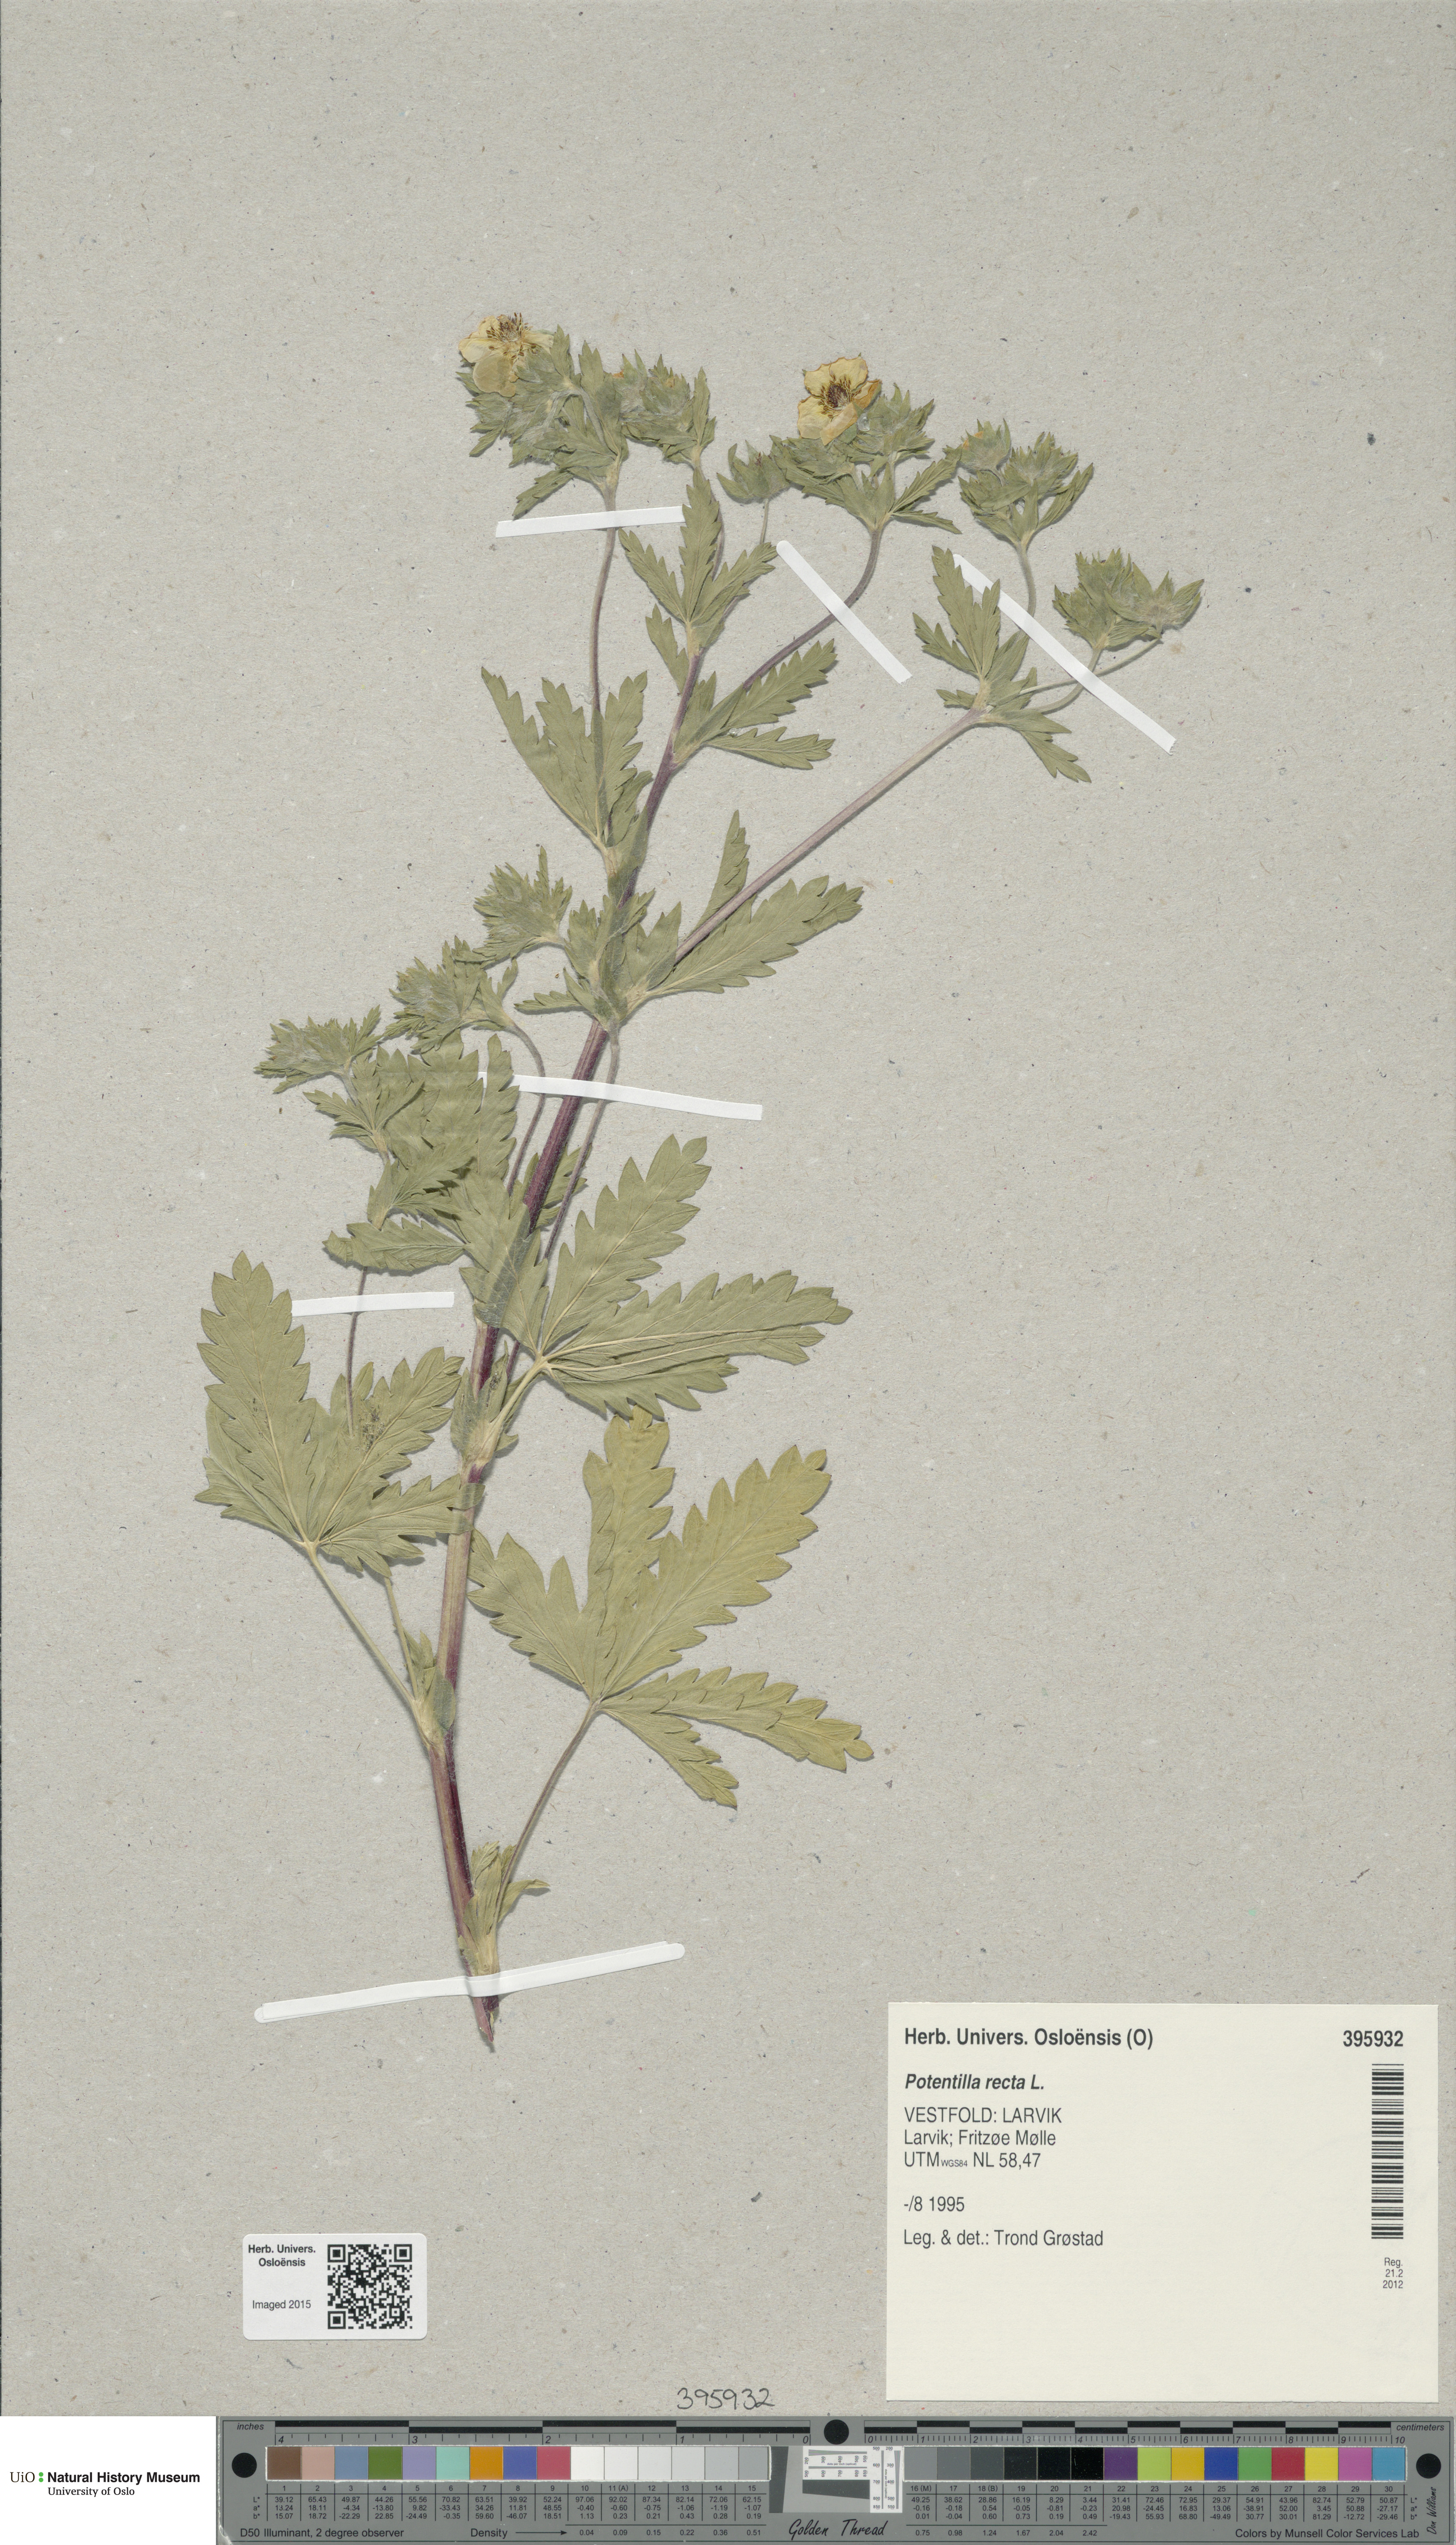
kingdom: Plantae
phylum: Tracheophyta
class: Magnoliopsida
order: Rosales
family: Rosaceae
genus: Potentilla
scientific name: Potentilla recta
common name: Sulphur cinquefoil
